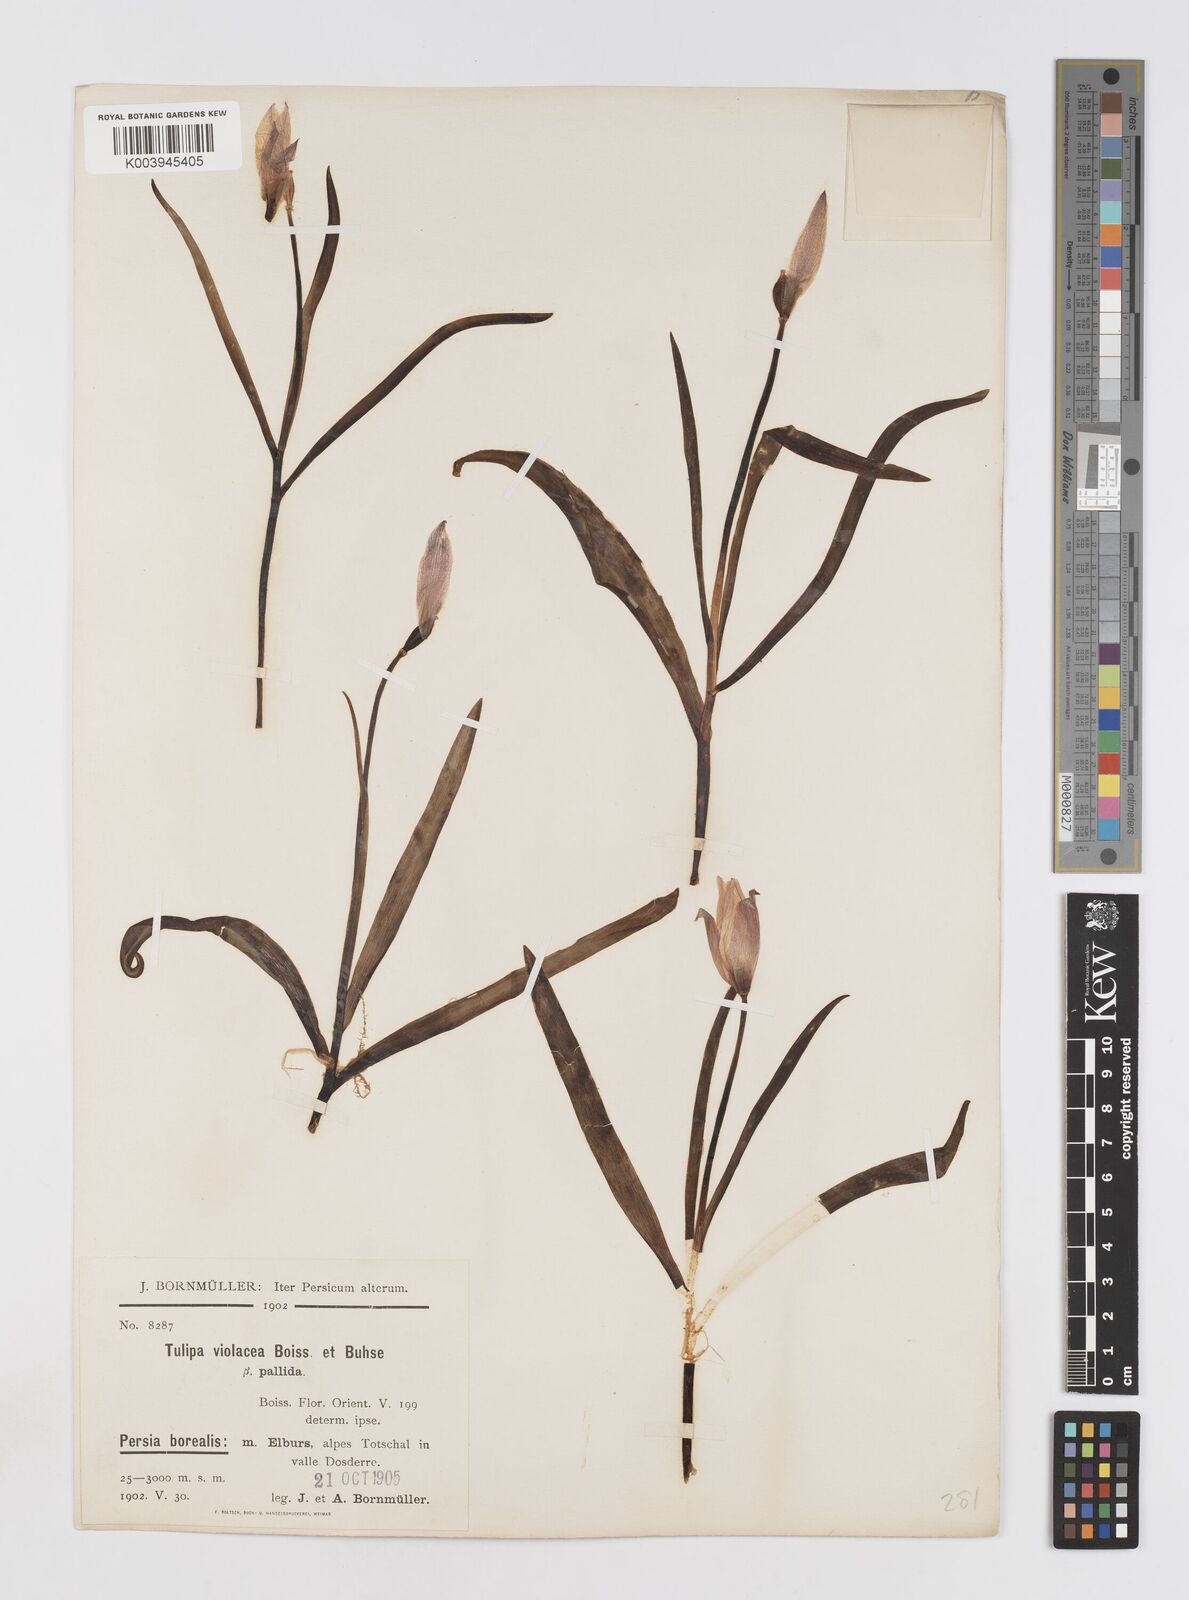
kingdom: Plantae
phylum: Tracheophyta
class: Liliopsida
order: Liliales
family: Liliaceae
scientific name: Liliaceae
